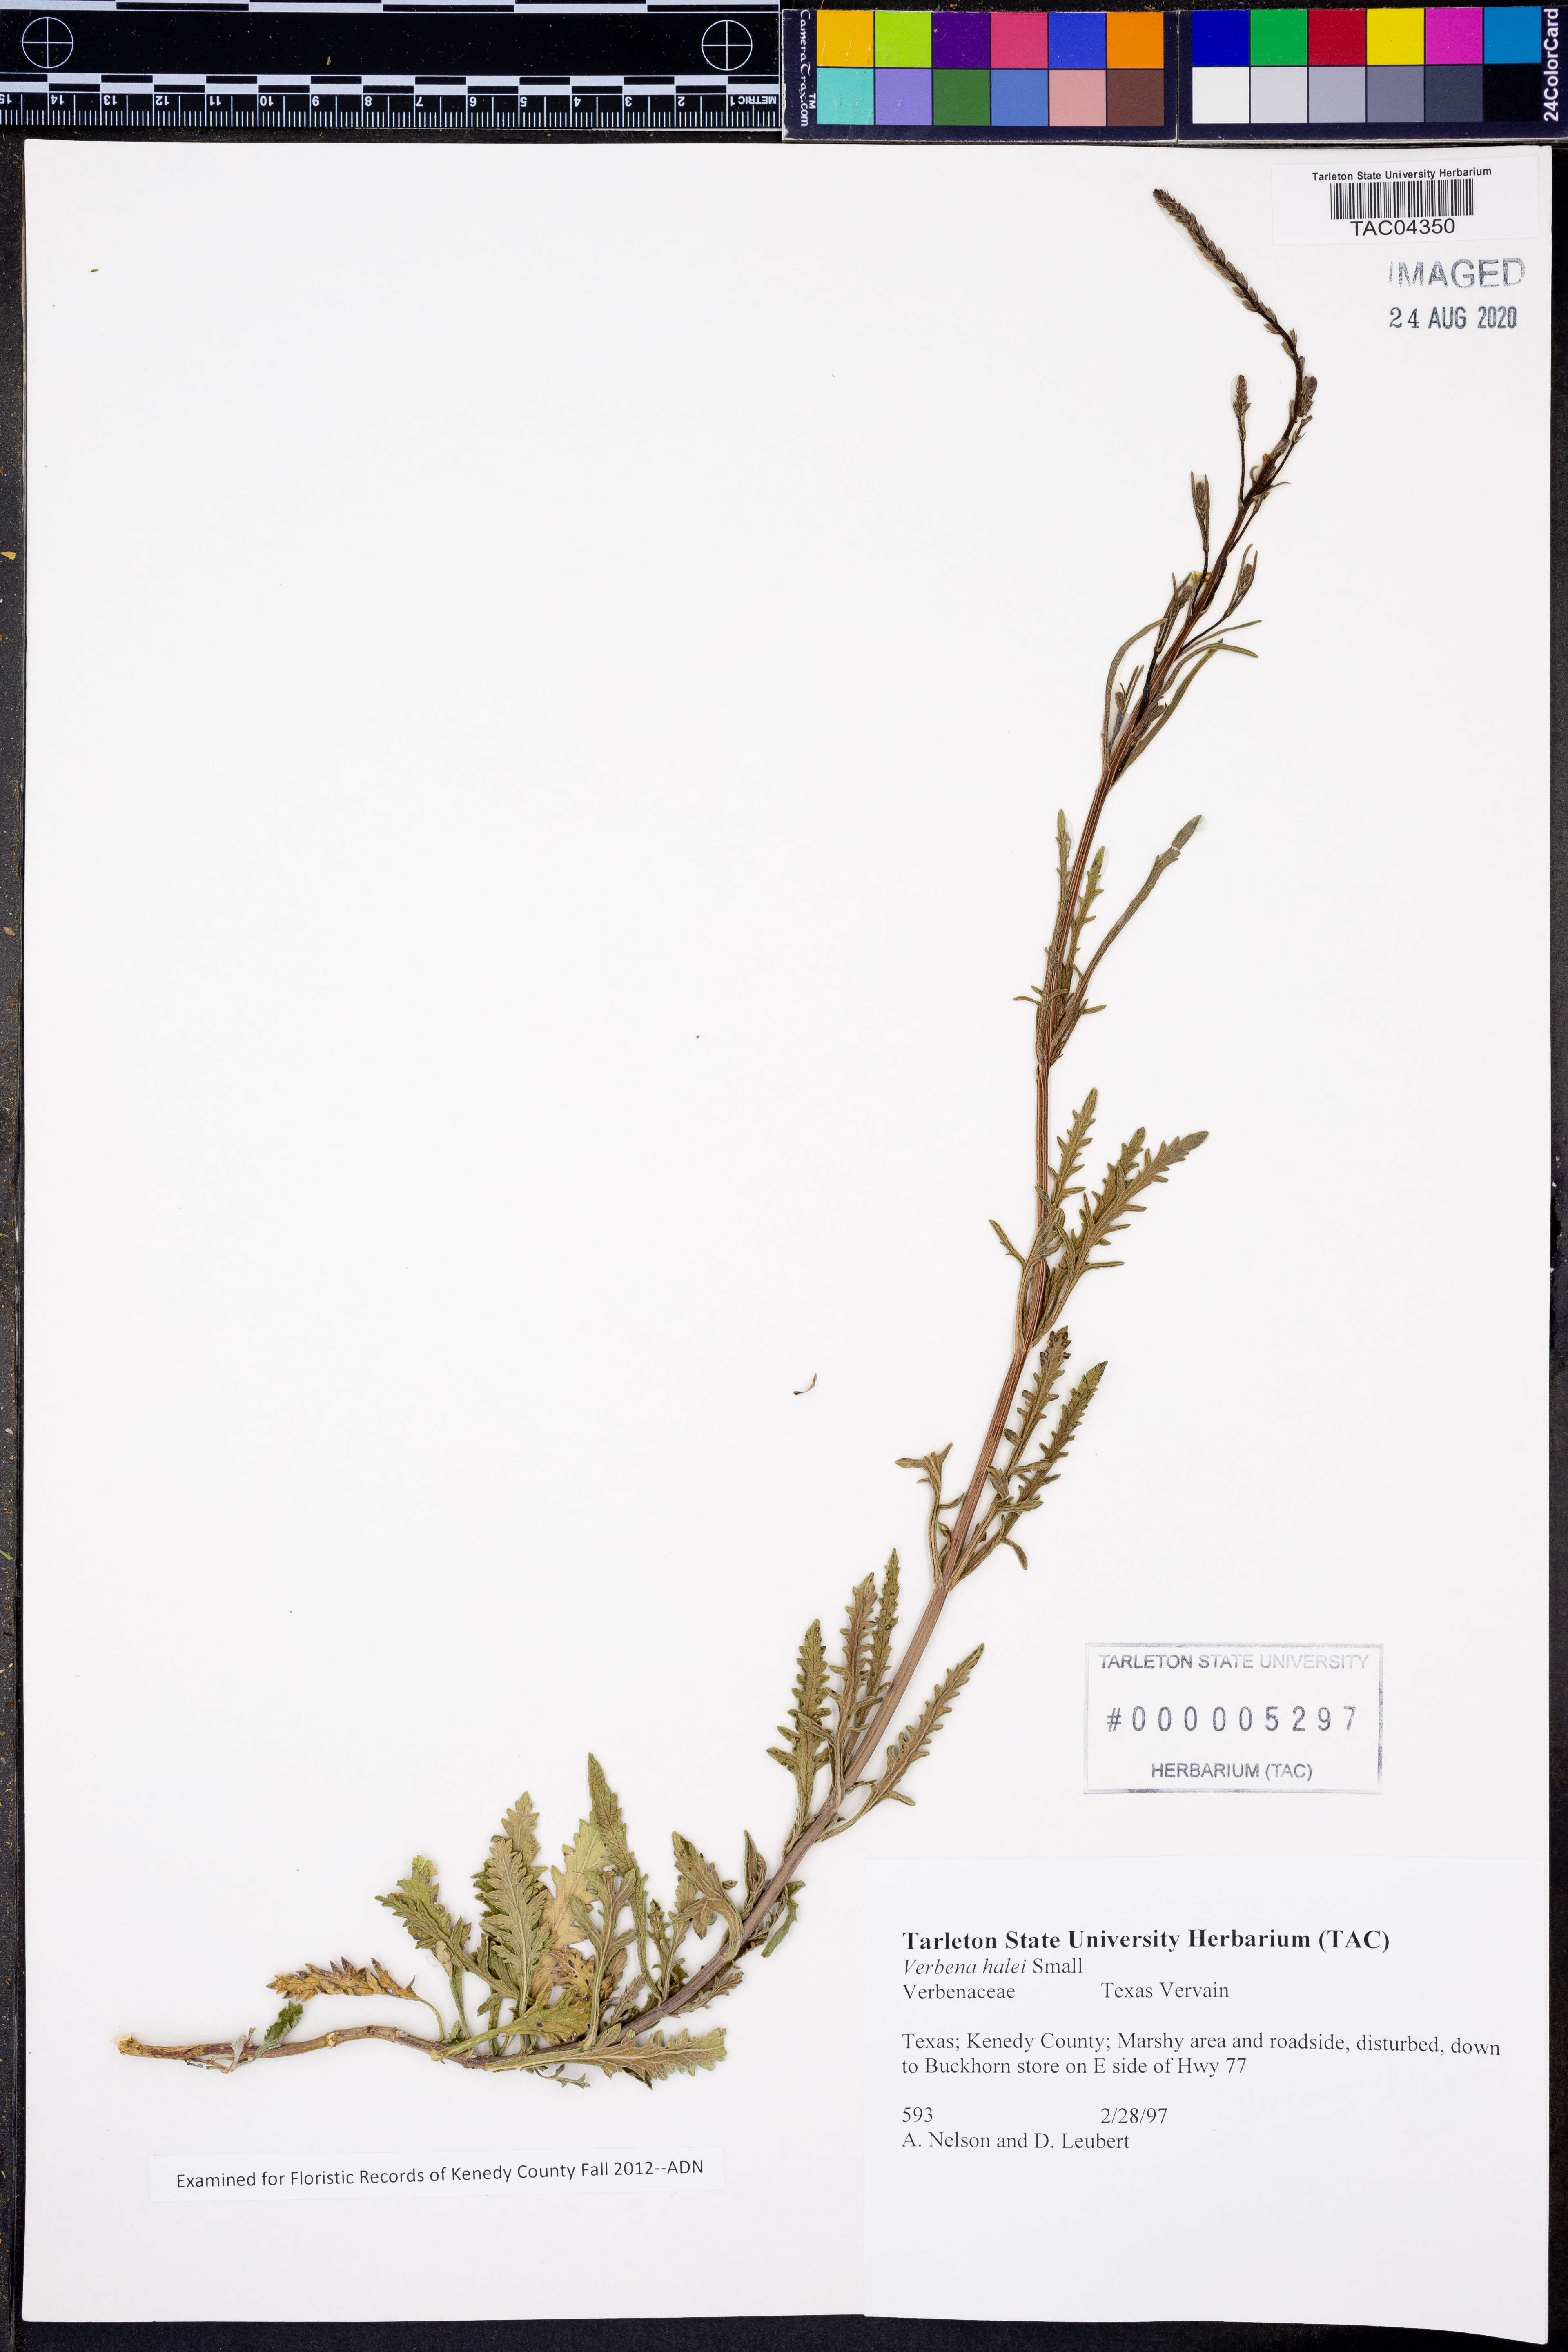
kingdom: Plantae
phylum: Tracheophyta
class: Magnoliopsida
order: Lamiales
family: Verbenaceae
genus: Verbena
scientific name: Verbena halei
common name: Texas vervain
